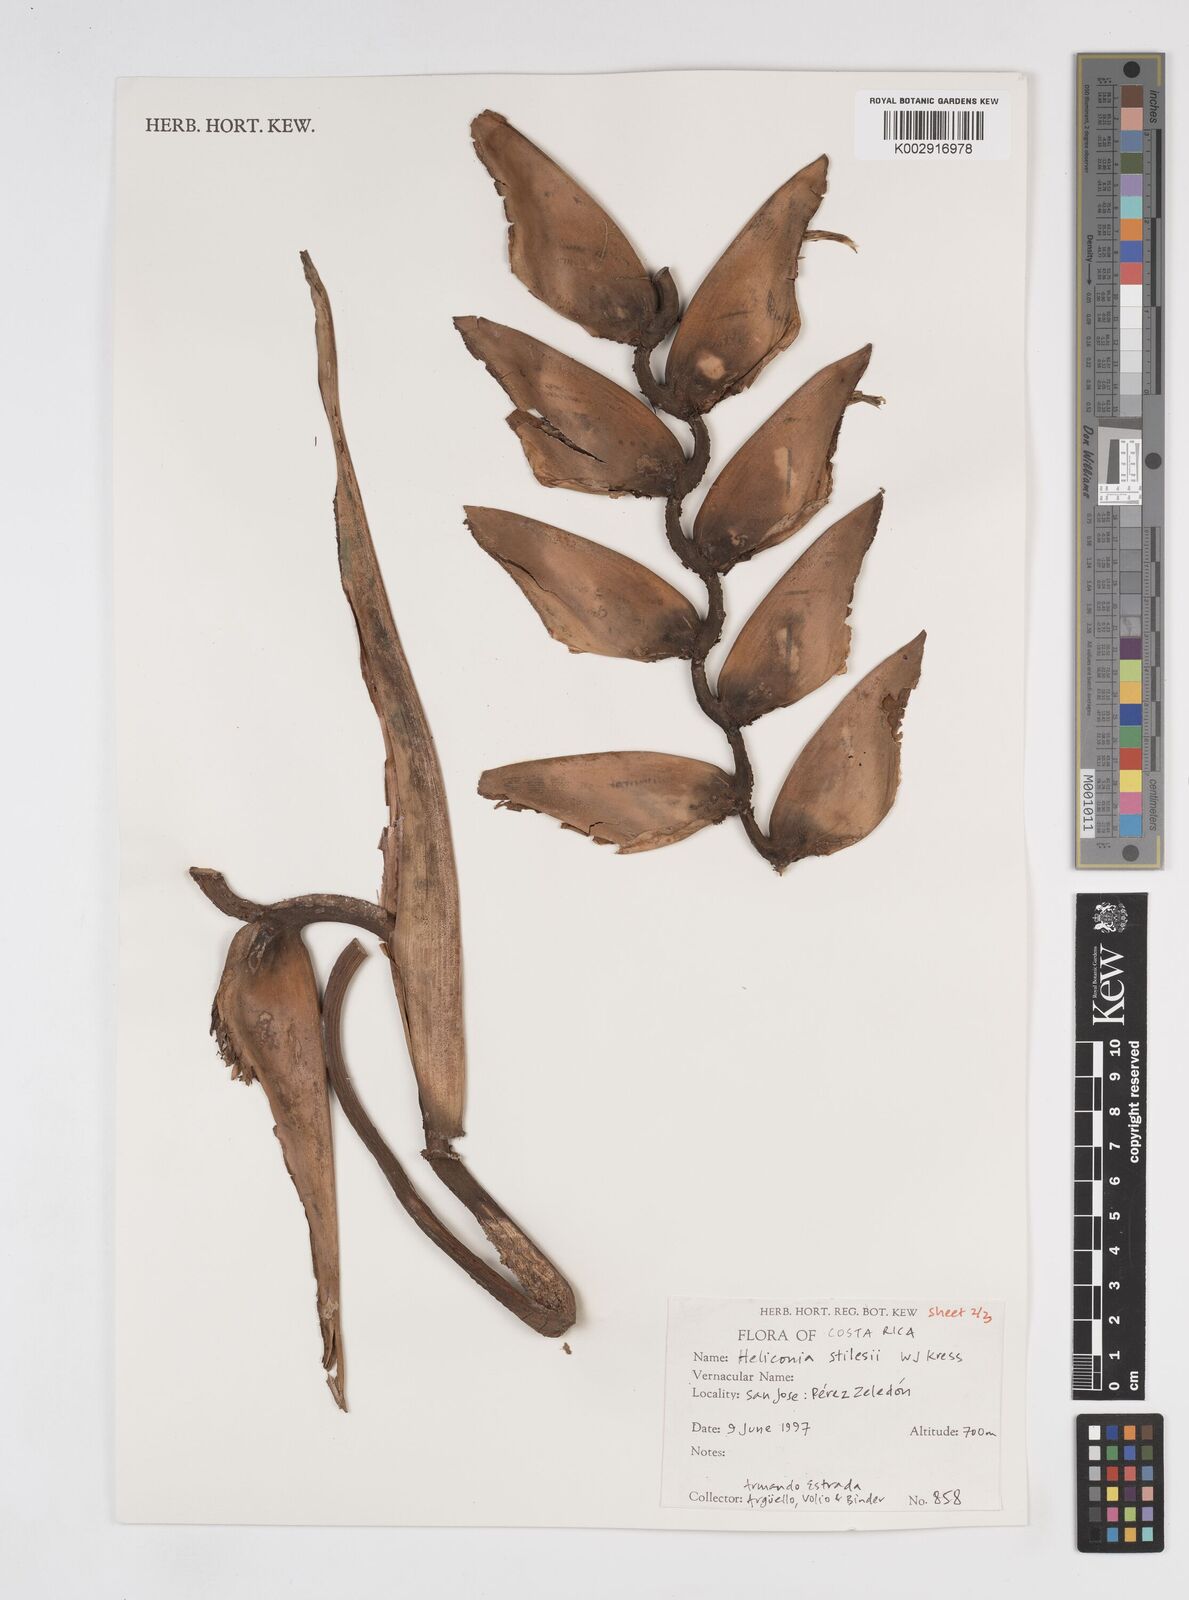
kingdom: Plantae
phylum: Tracheophyta
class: Liliopsida
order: Zingiberales
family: Heliconiaceae
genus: Heliconia
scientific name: Heliconia stilesii
